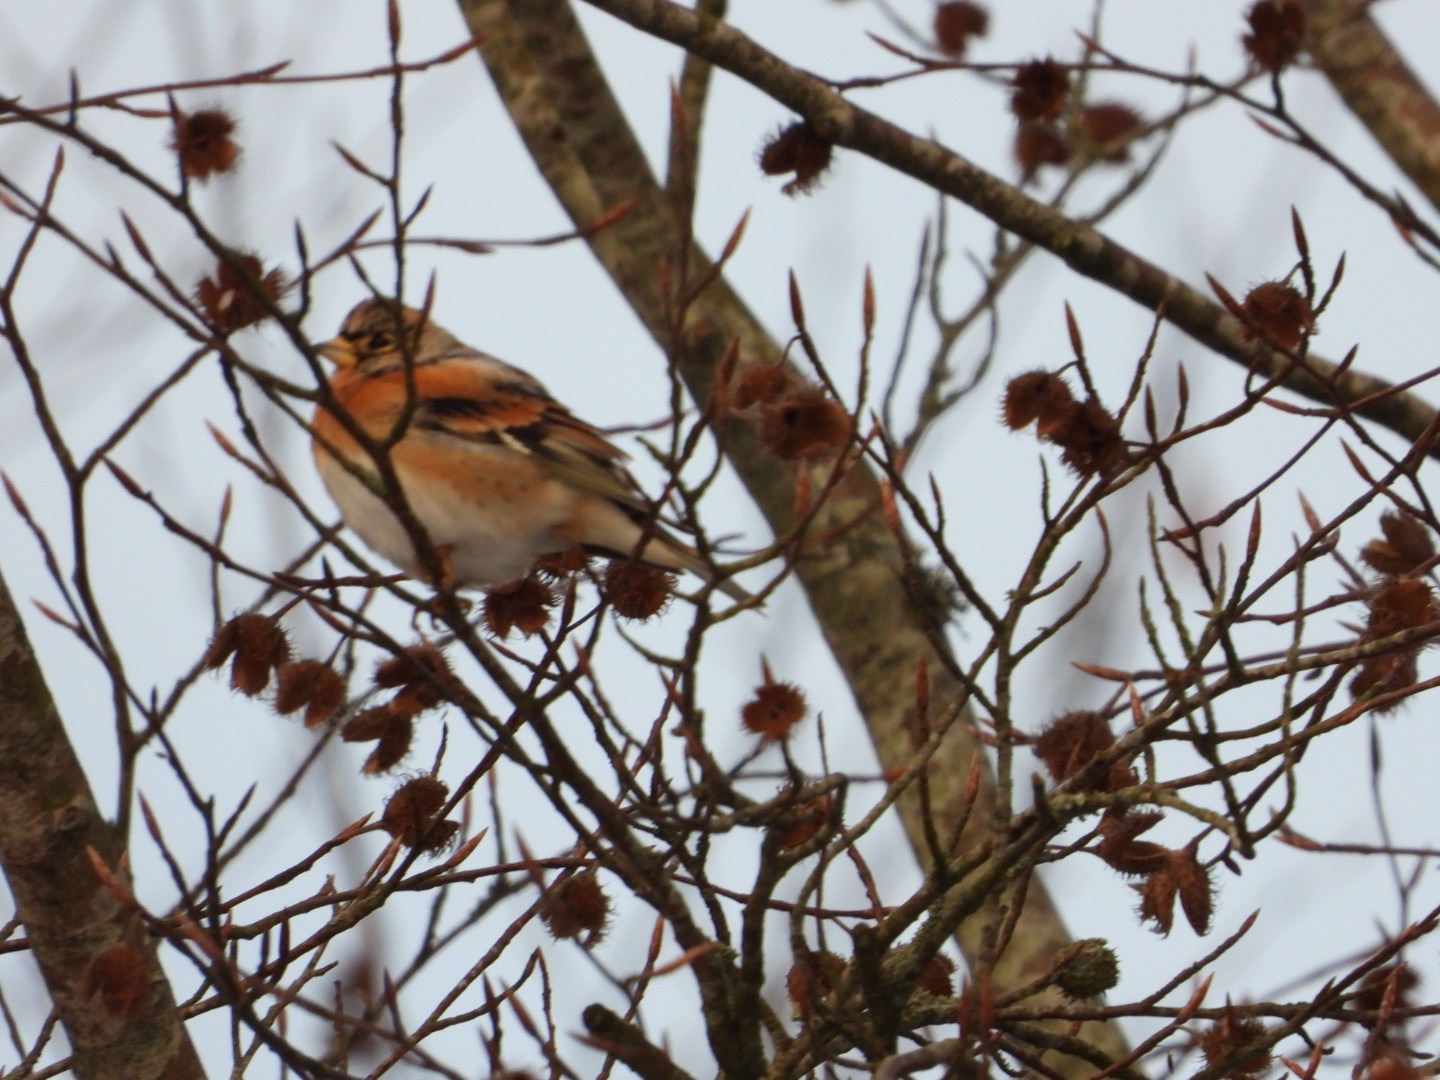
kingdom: Animalia
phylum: Chordata
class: Aves
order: Passeriformes
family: Fringillidae
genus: Fringilla
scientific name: Fringilla montifringilla
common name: Kvækerfinke
